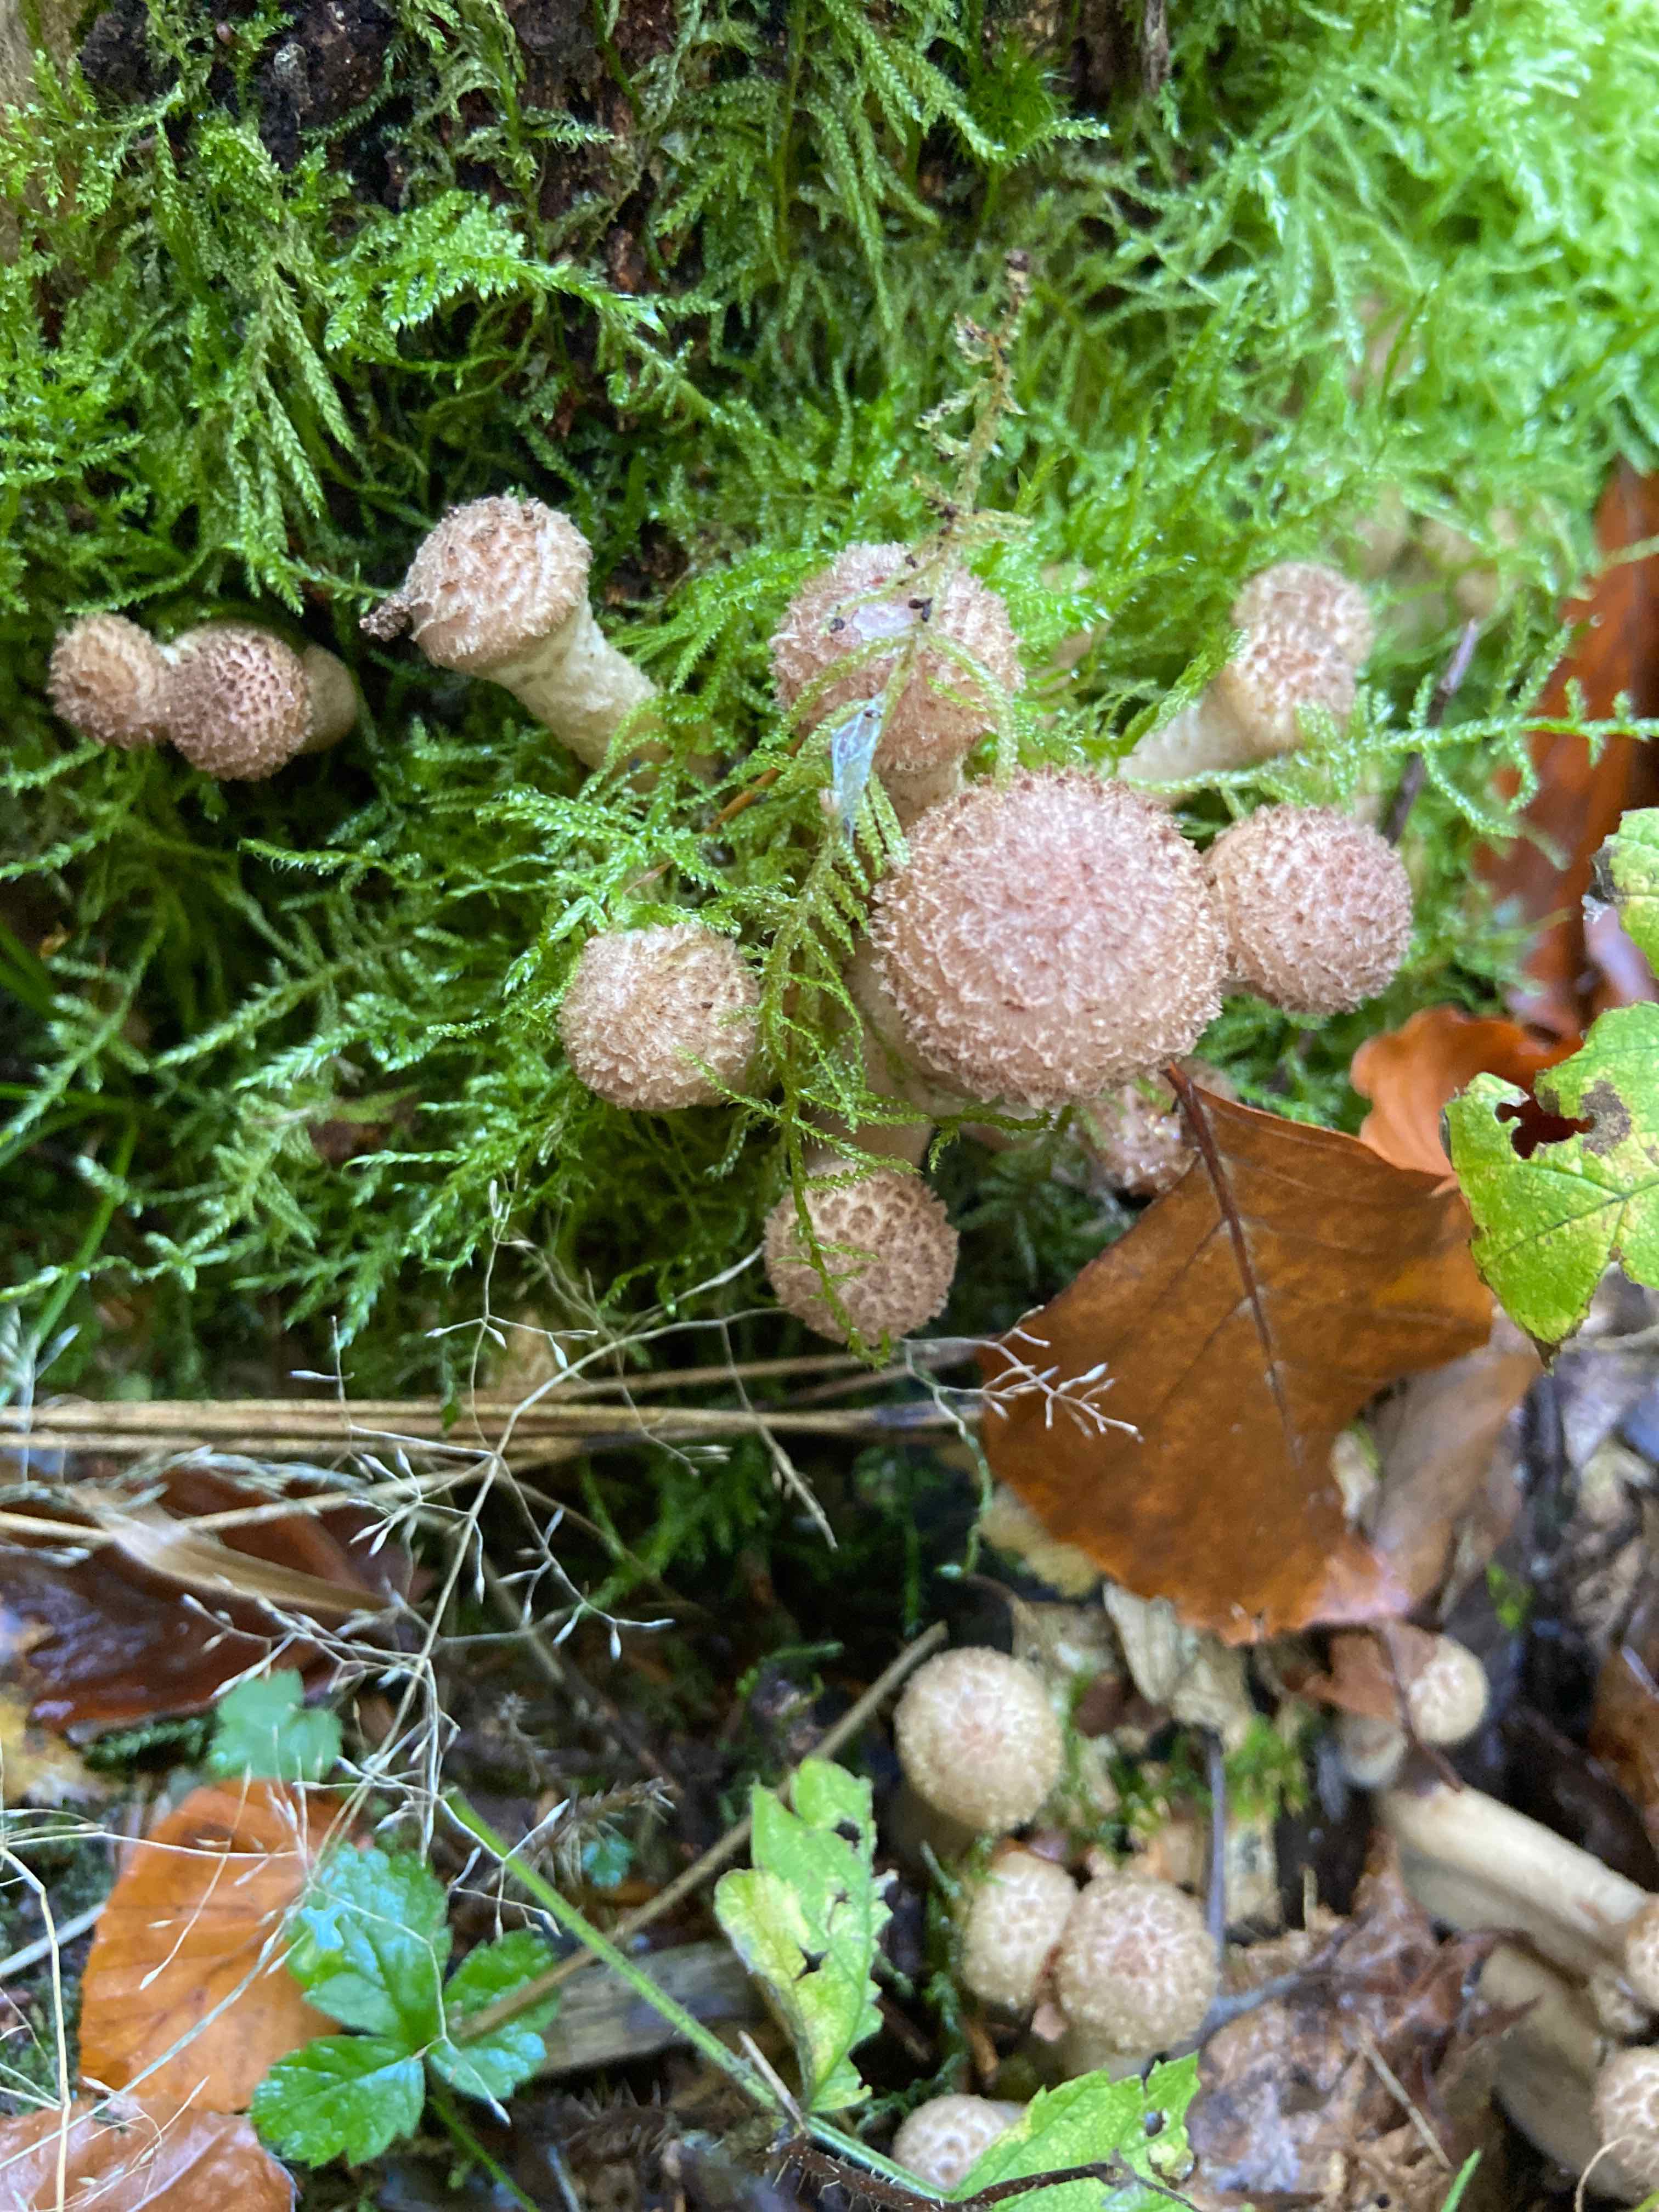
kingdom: Fungi
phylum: Basidiomycota
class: Agaricomycetes
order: Agaricales
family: Physalacriaceae
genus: Armillaria
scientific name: Armillaria ostoyae
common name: mørk honningsvamp
